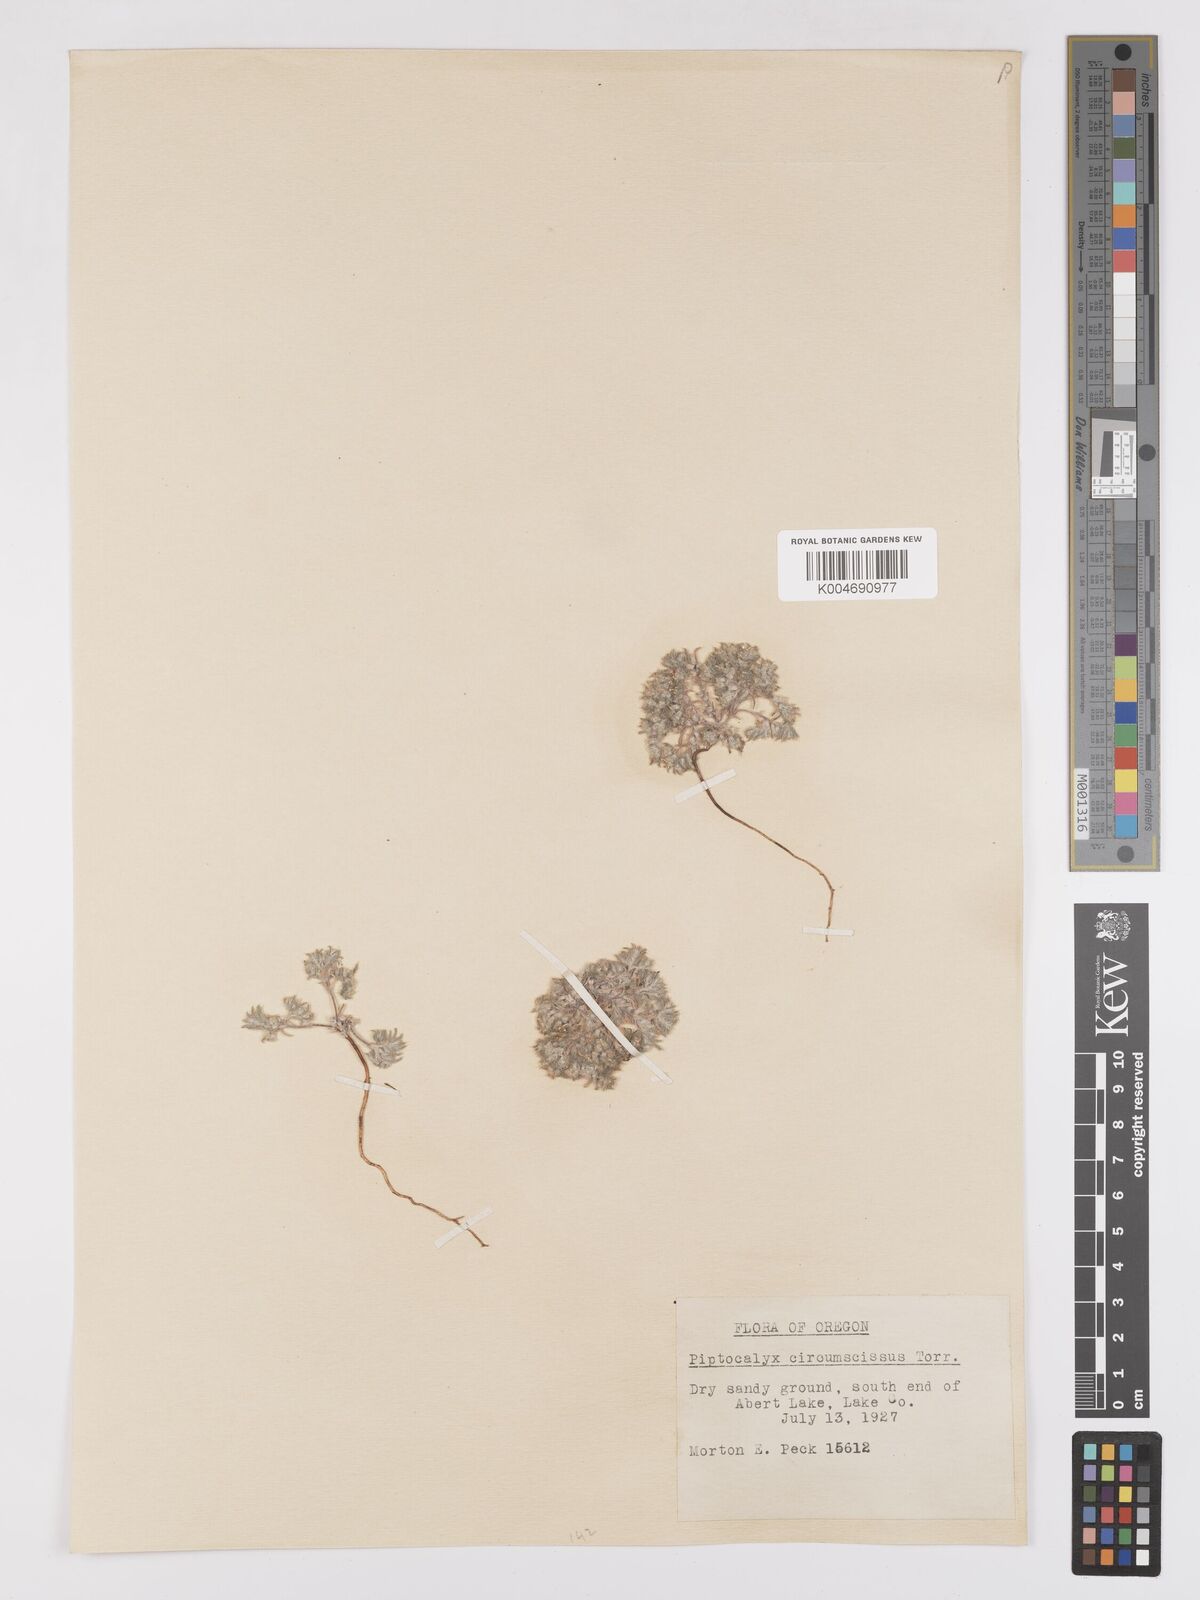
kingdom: Plantae
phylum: Tracheophyta
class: Magnoliopsida
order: Boraginales
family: Boraginaceae
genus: Greeneocharis
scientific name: Greeneocharis circumscissa
